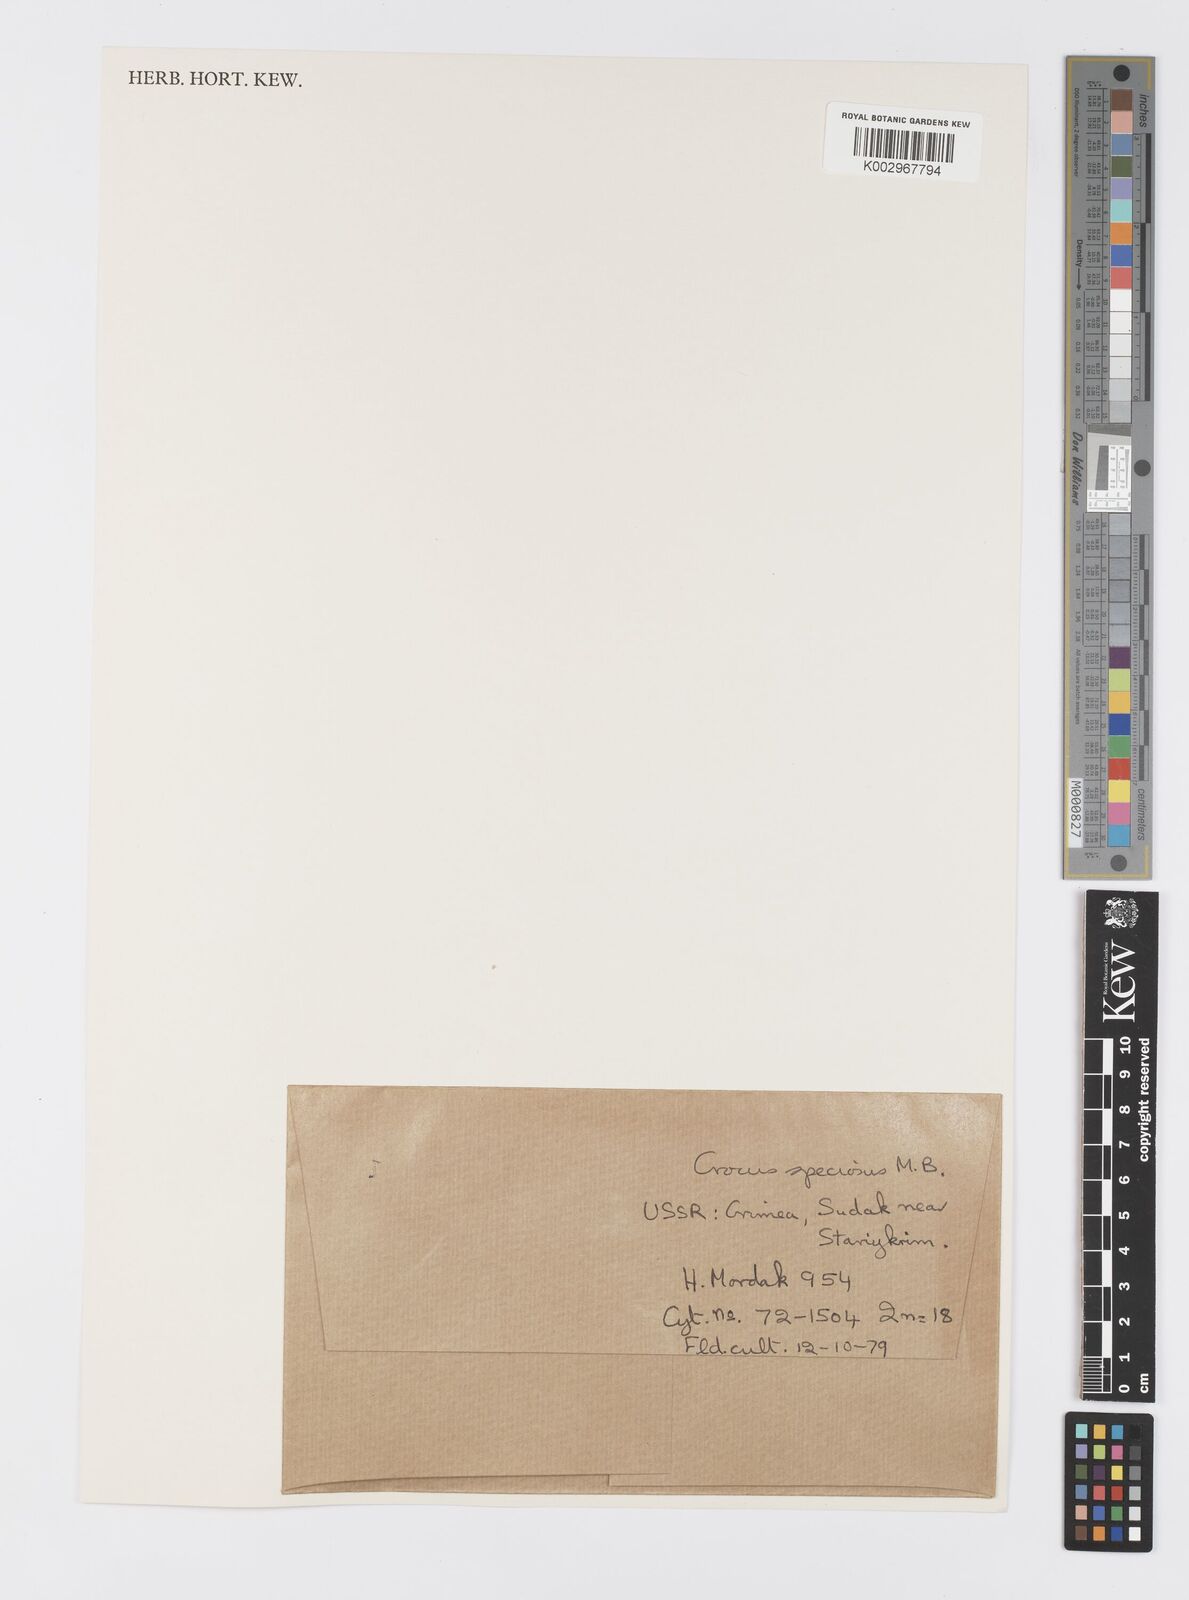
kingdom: Plantae
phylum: Tracheophyta
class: Liliopsida
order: Asparagales
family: Iridaceae
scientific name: Iridaceae
